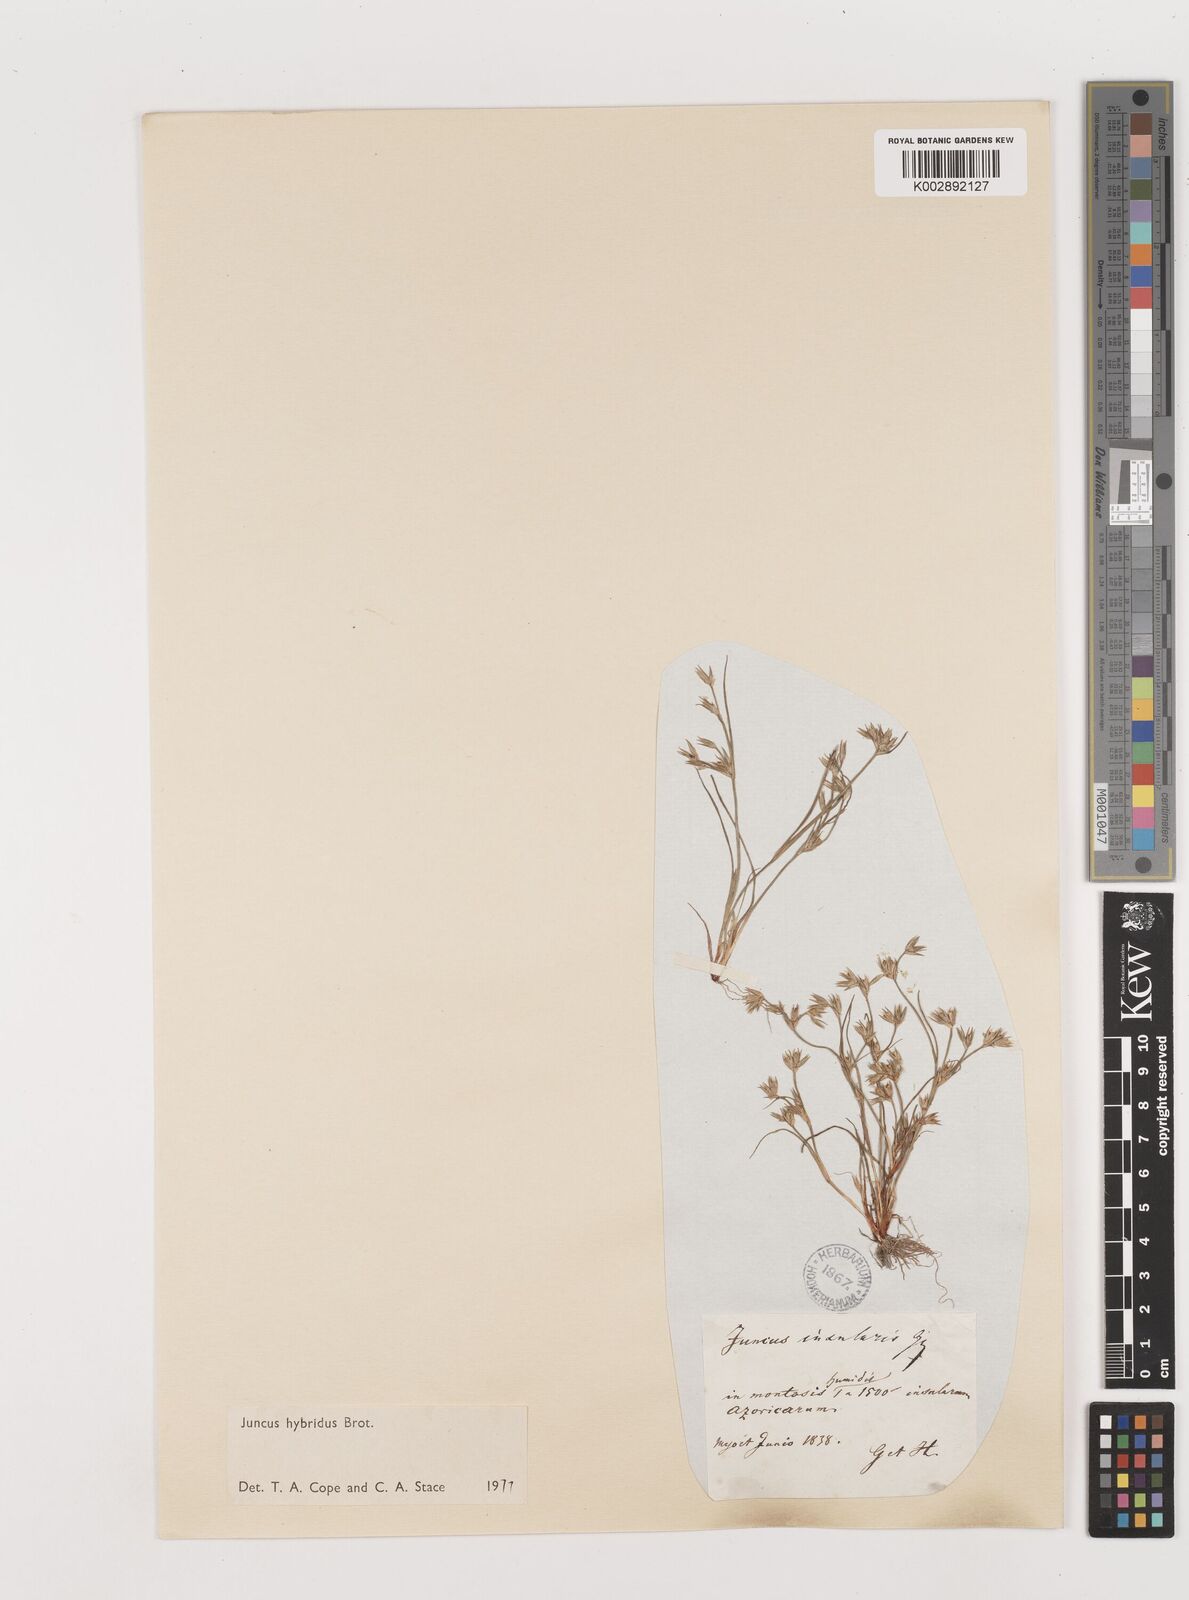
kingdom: Plantae
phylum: Tracheophyta
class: Liliopsida
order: Poales
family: Juncaceae
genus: Juncus
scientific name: Juncus hybridus
